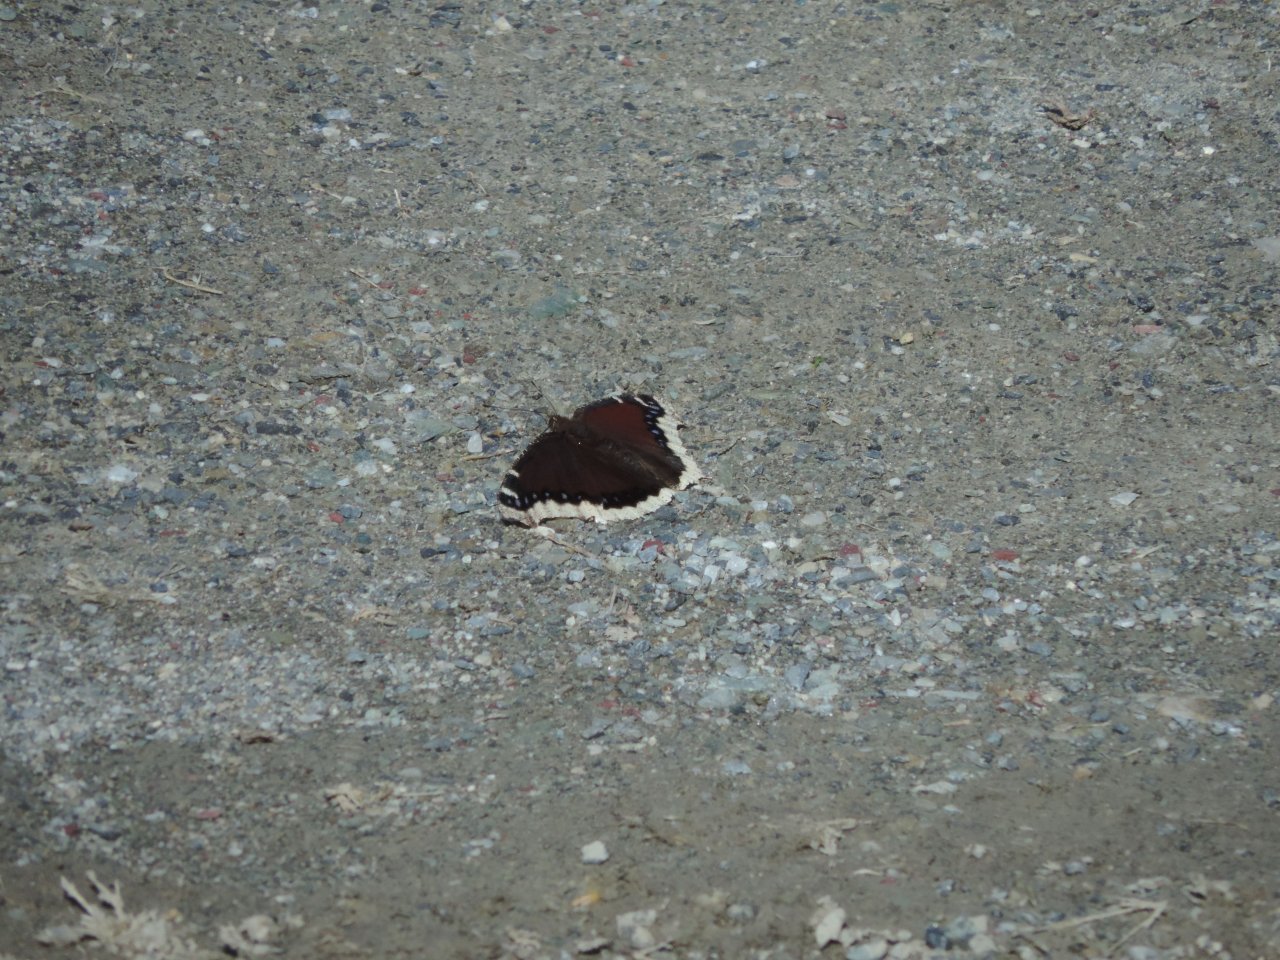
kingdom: Animalia
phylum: Arthropoda
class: Insecta
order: Lepidoptera
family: Nymphalidae
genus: Nymphalis
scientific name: Nymphalis antiopa
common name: Mourning Cloak
